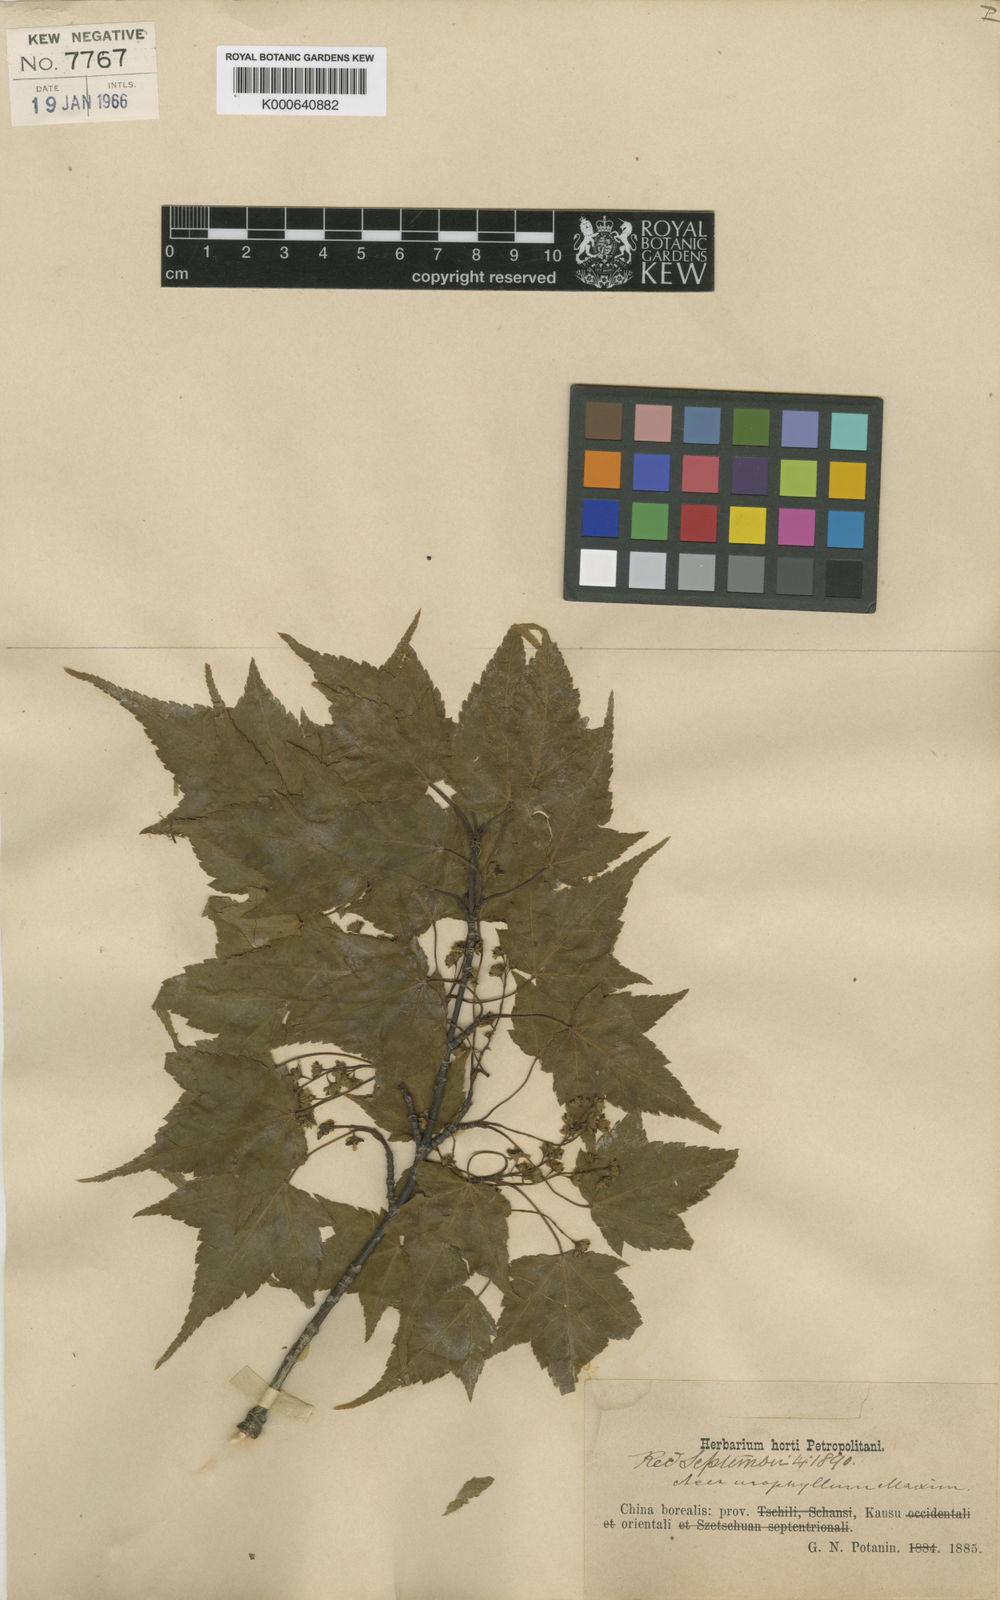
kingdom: Plantae
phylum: Tracheophyta
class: Magnoliopsida
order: Sapindales
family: Sapindaceae
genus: Acer
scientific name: Acer maximowiczii
